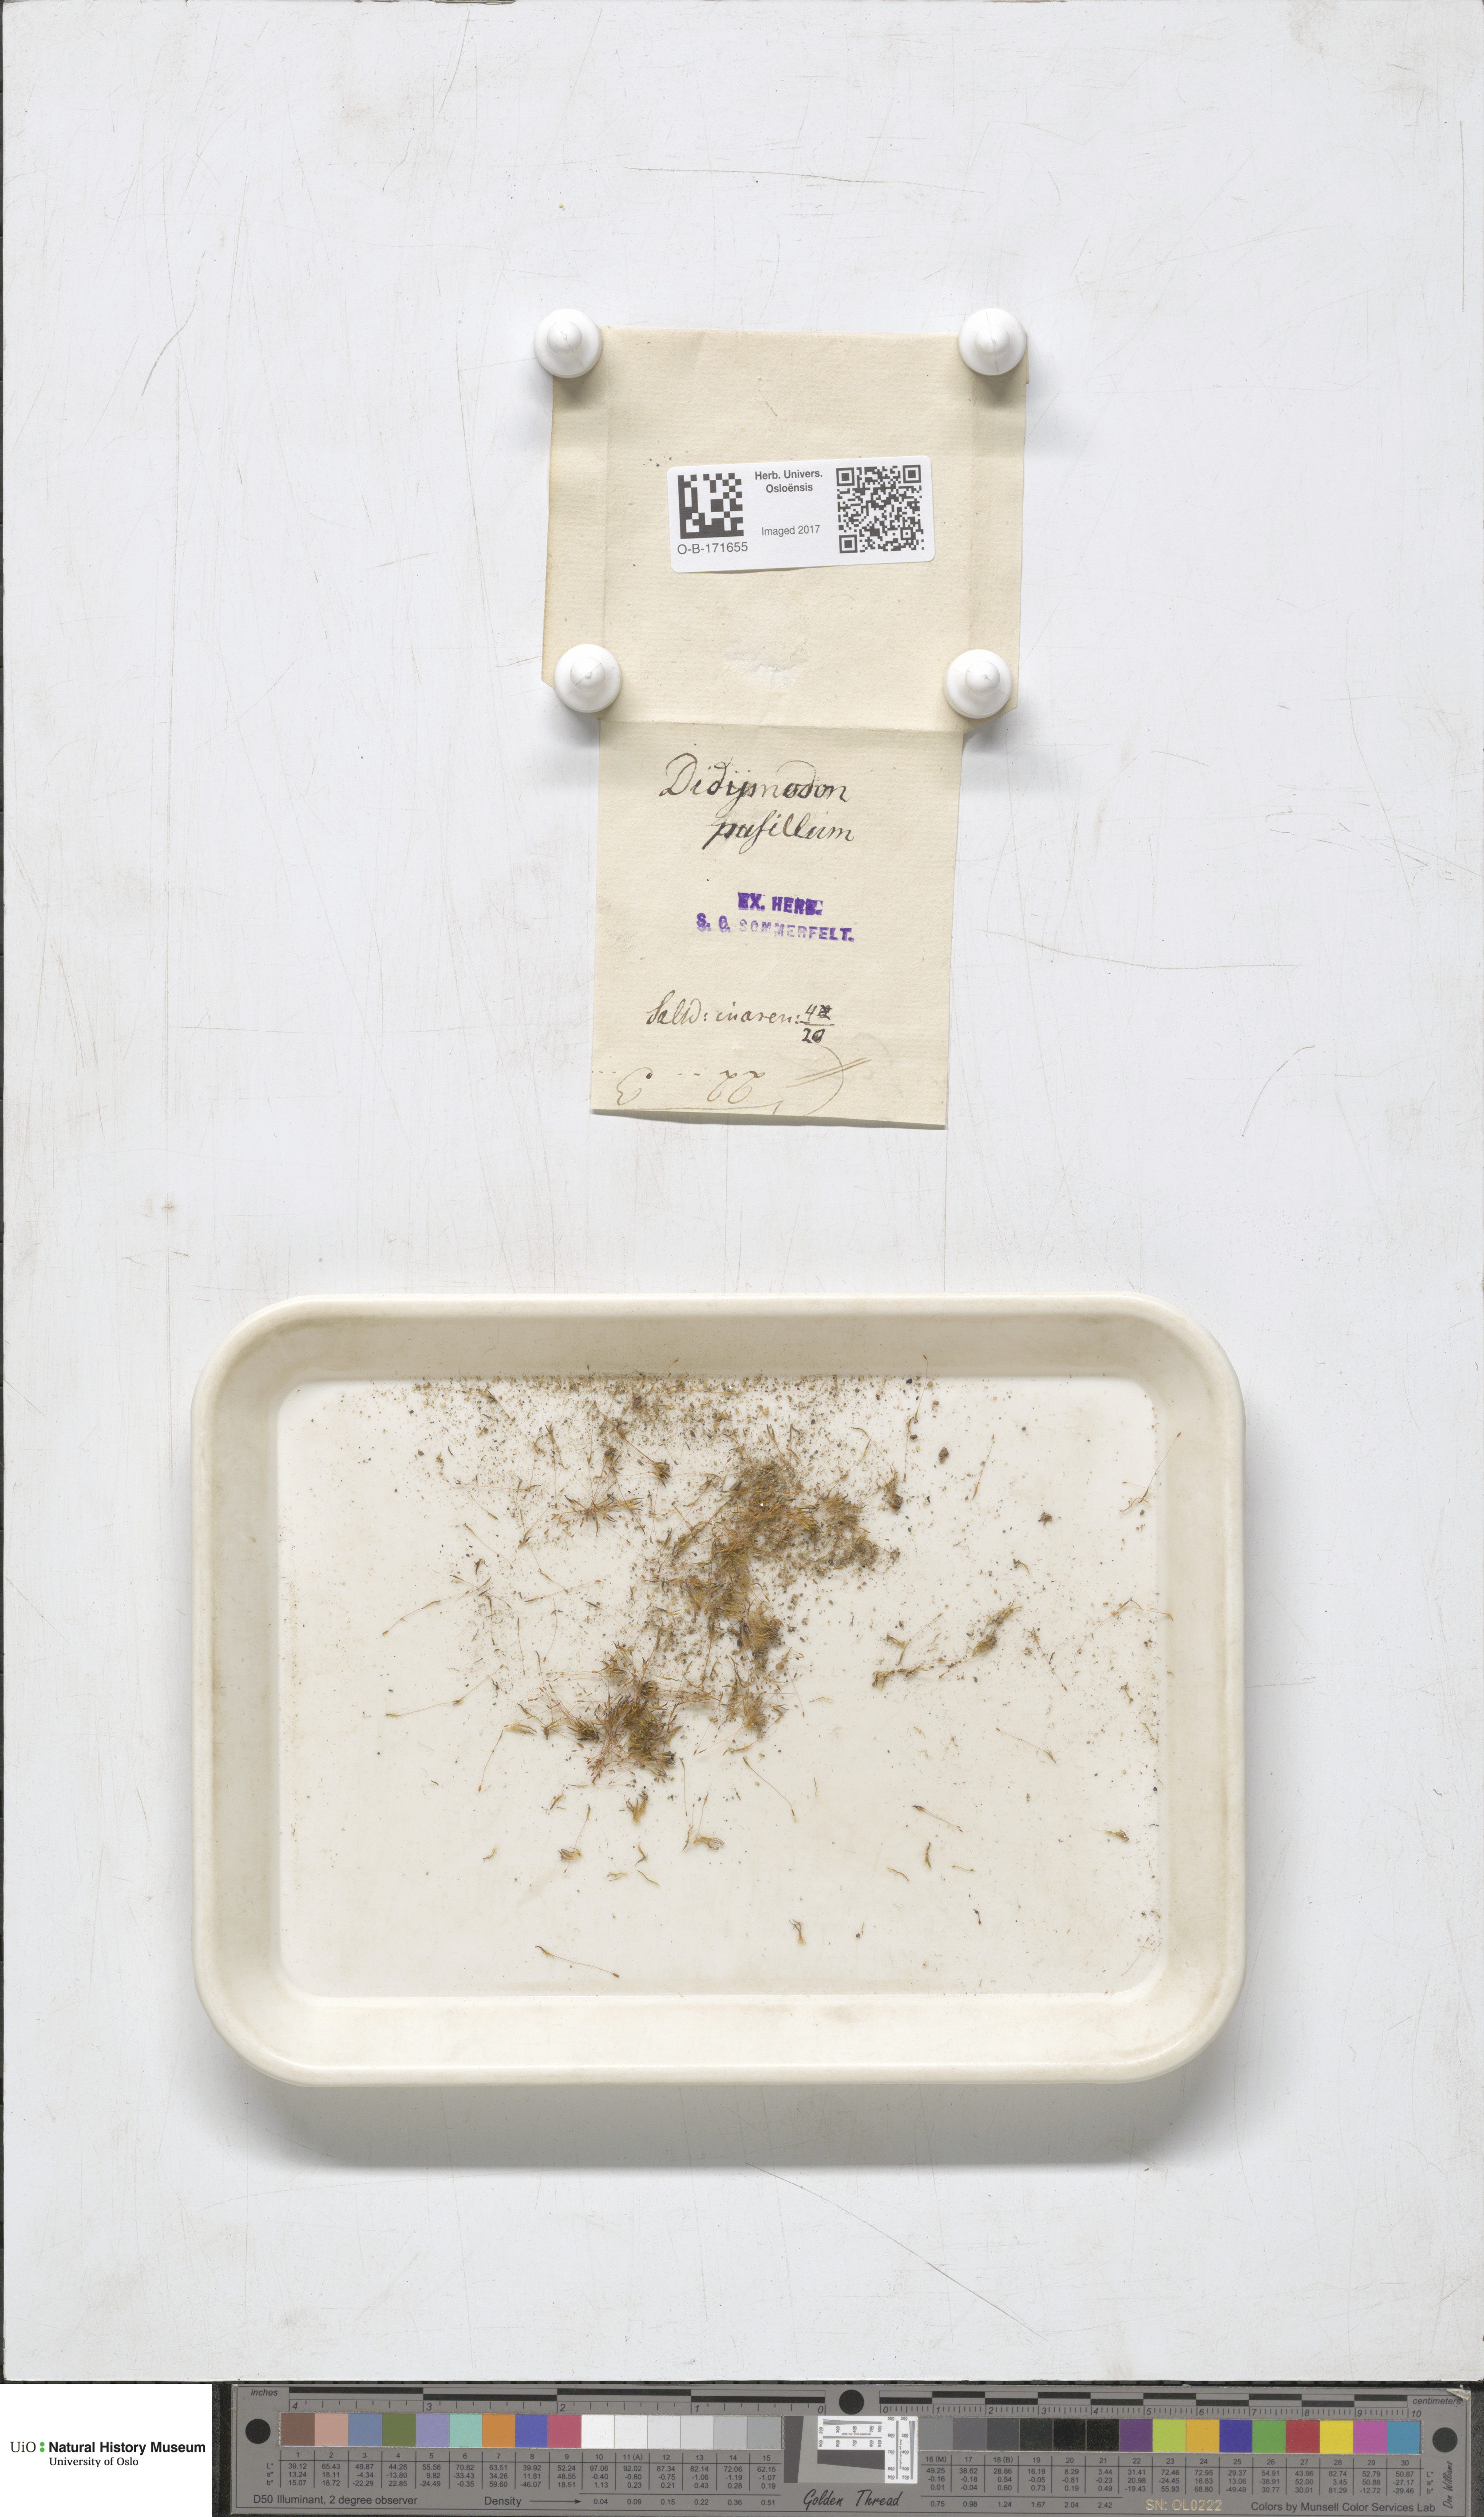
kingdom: Plantae
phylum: Bryophyta
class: Bryopsida
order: Dicranales
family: Ditrichaceae
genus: Ditrichum
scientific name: Ditrichum pusillum
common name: Brown cow-hair moss
